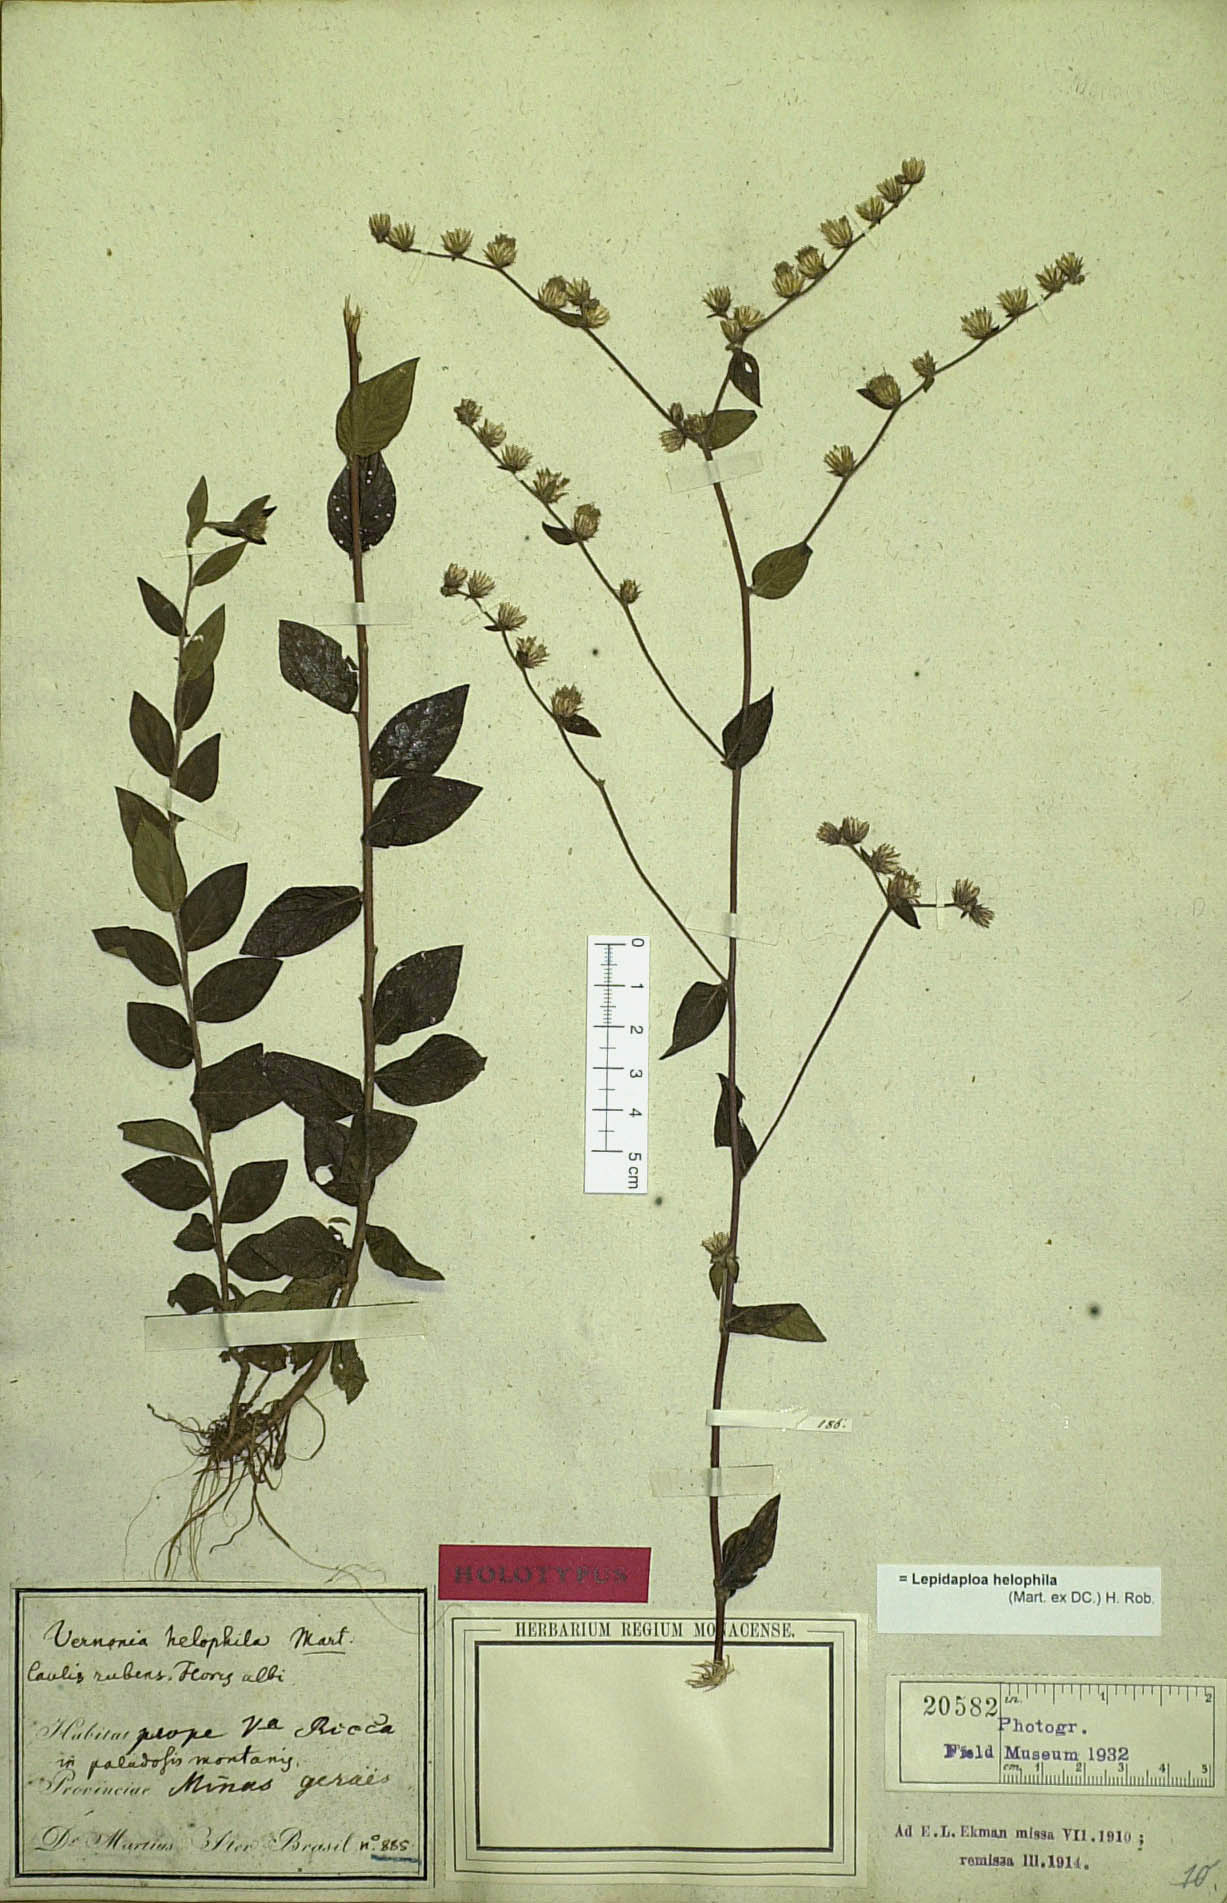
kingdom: Plantae
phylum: Tracheophyta
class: Magnoliopsida
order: Asterales
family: Asteraceae
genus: Lepidaploa
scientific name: Lepidaploa helophila
